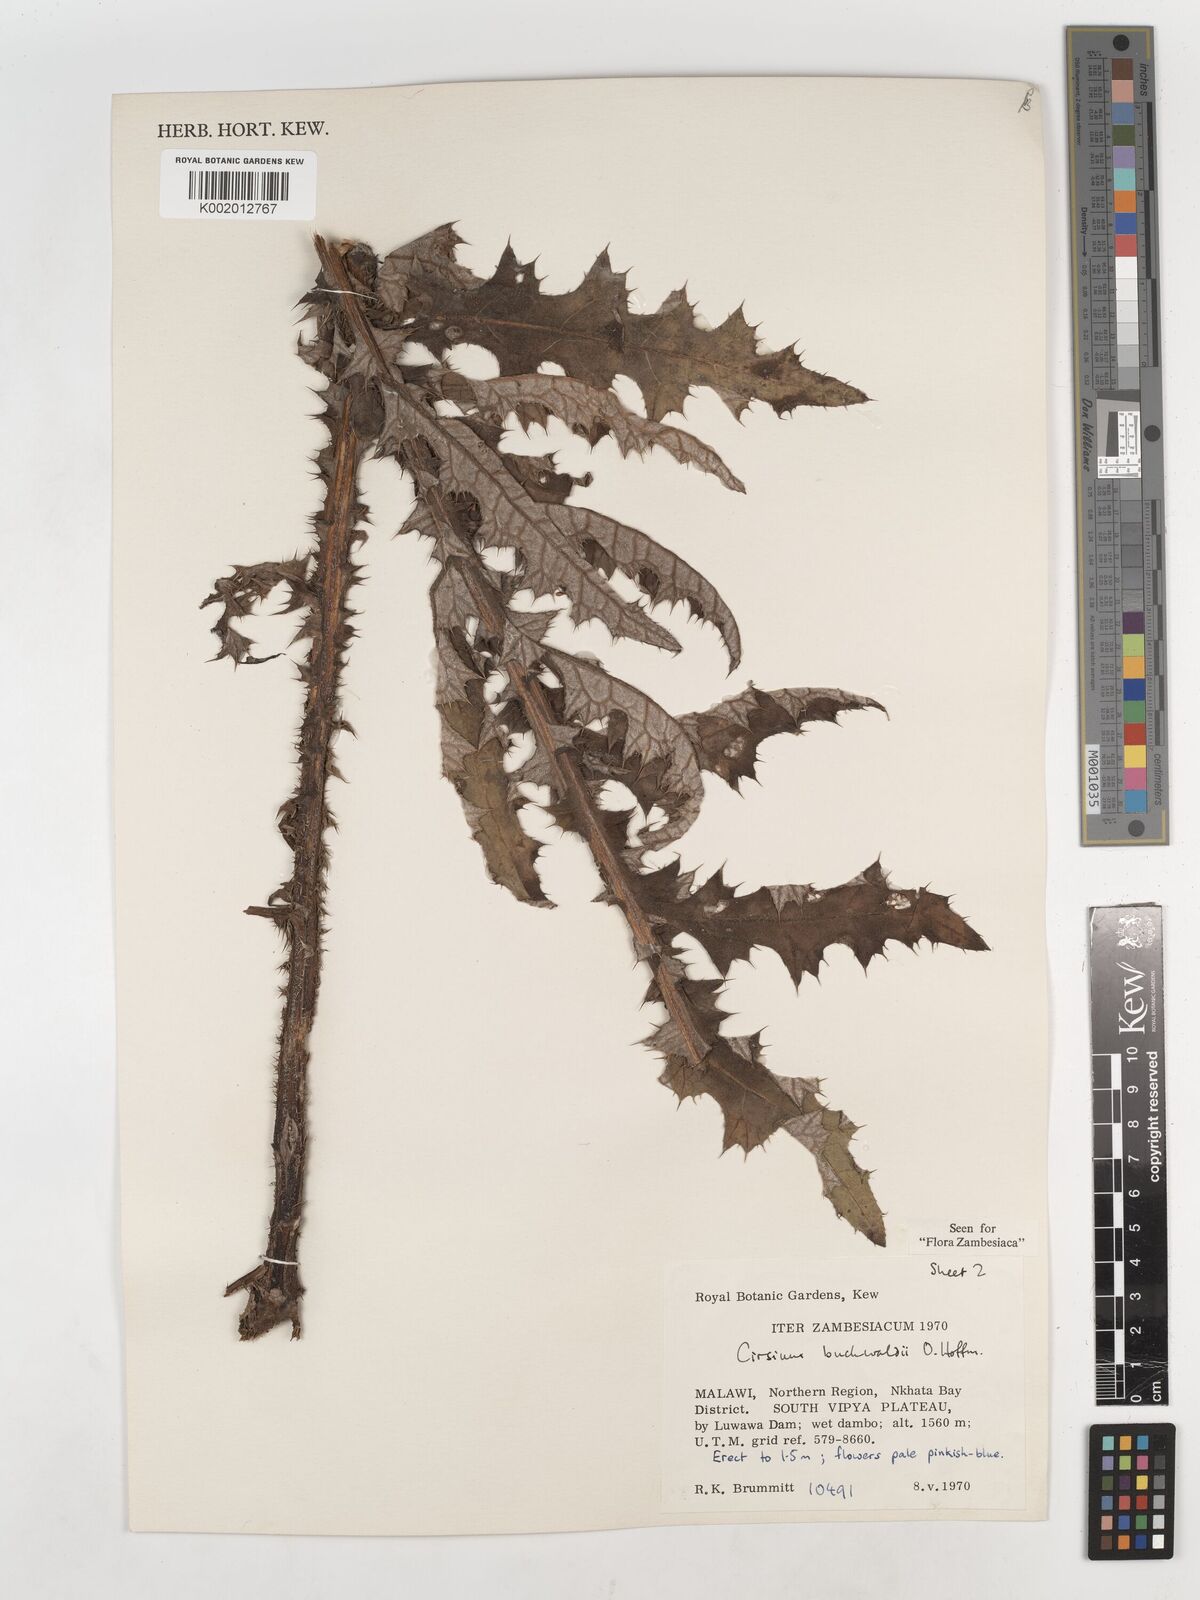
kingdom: Plantae
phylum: Tracheophyta
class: Magnoliopsida
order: Asterales
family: Asteraceae
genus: Cirsium
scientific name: Cirsium buchwaldii
